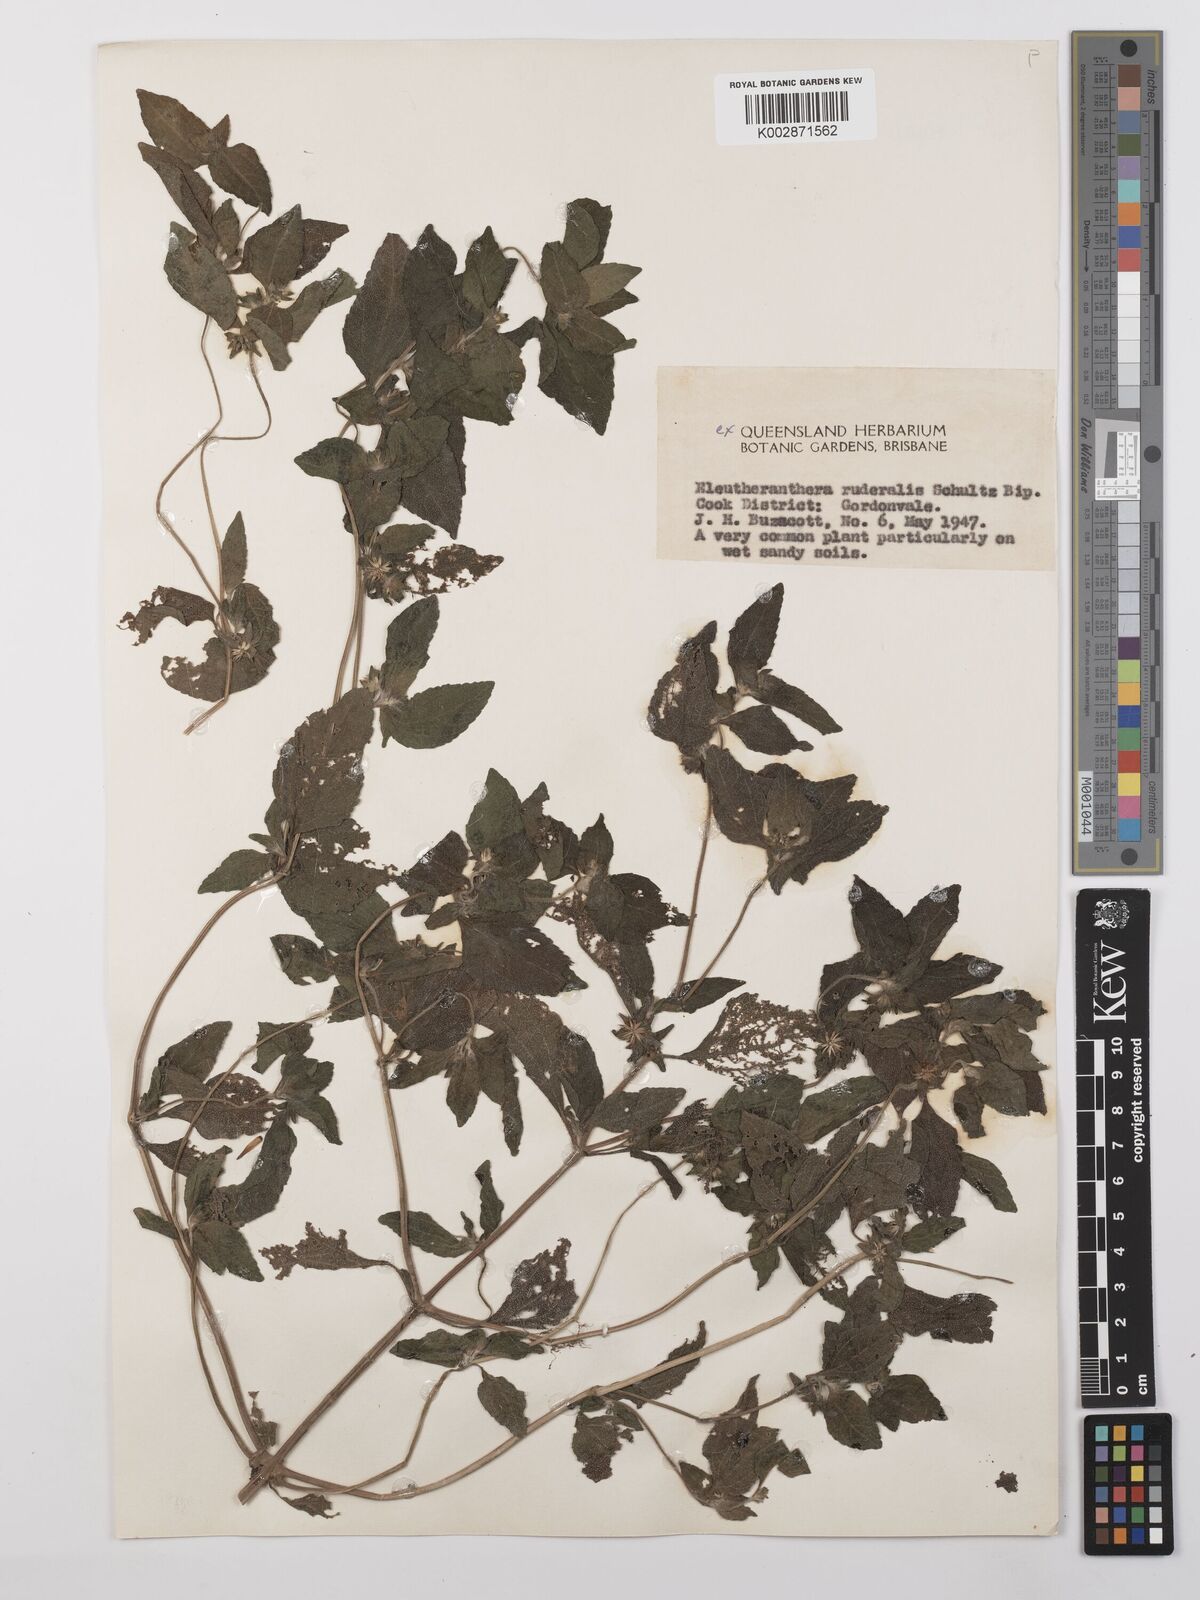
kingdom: Plantae
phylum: Tracheophyta
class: Magnoliopsida
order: Asterales
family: Asteraceae
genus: Eleutheranthera
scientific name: Eleutheranthera ruderalis
